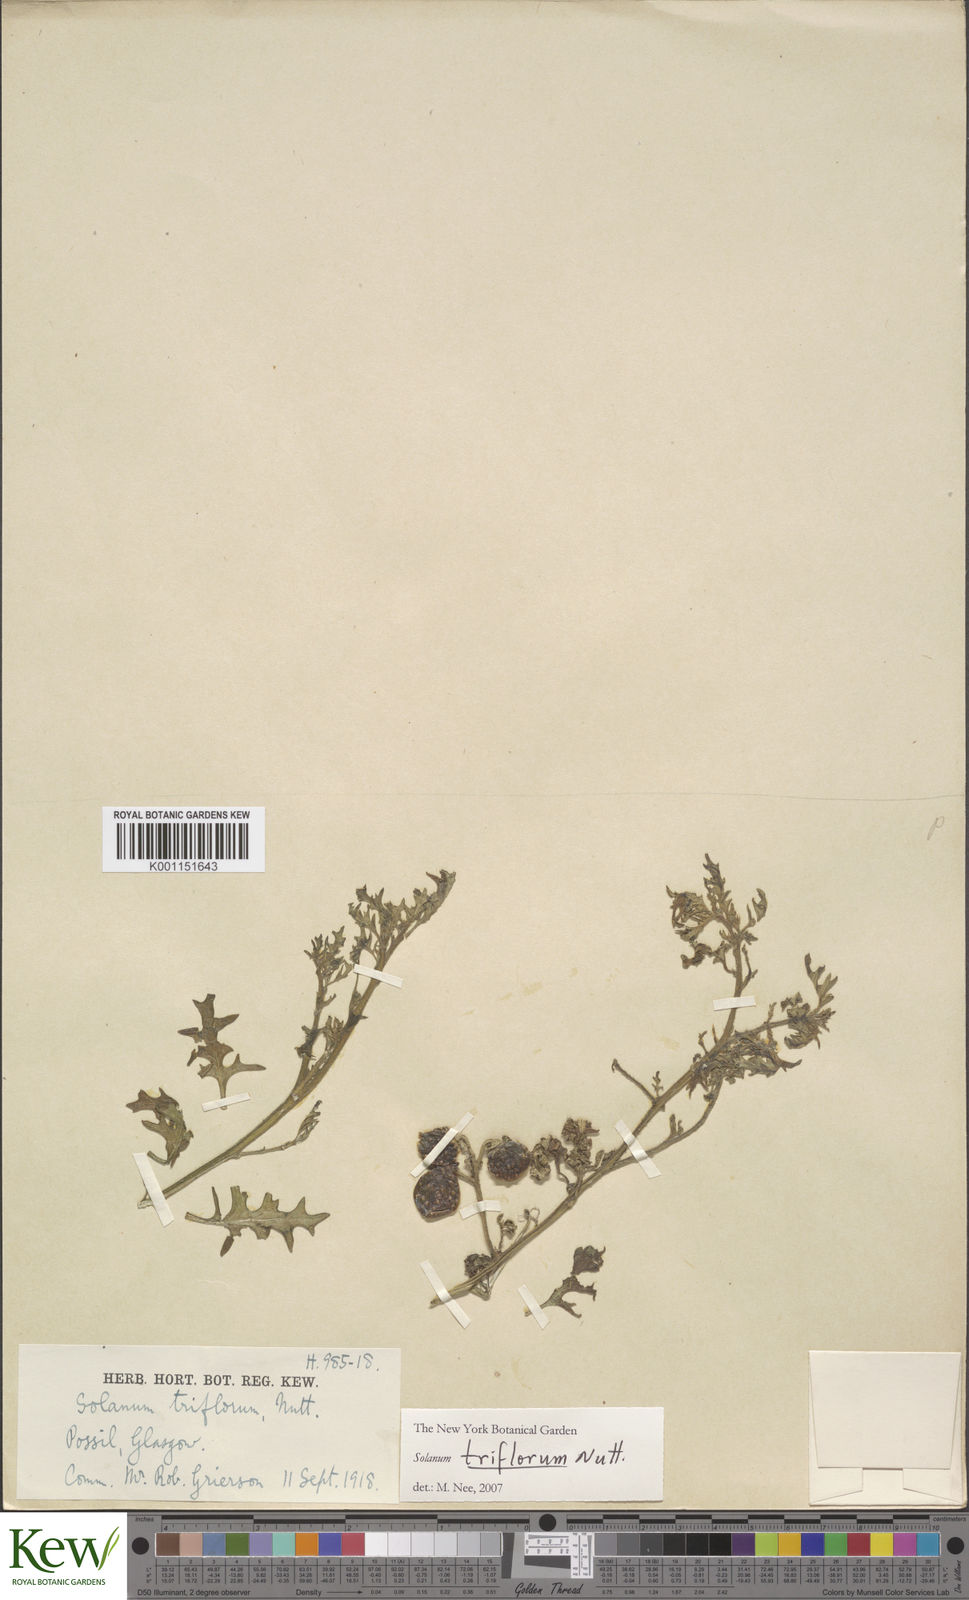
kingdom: Plantae
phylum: Tracheophyta
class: Magnoliopsida
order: Solanales
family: Solanaceae
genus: Solanum
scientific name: Solanum triflorum
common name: Small nightshade
